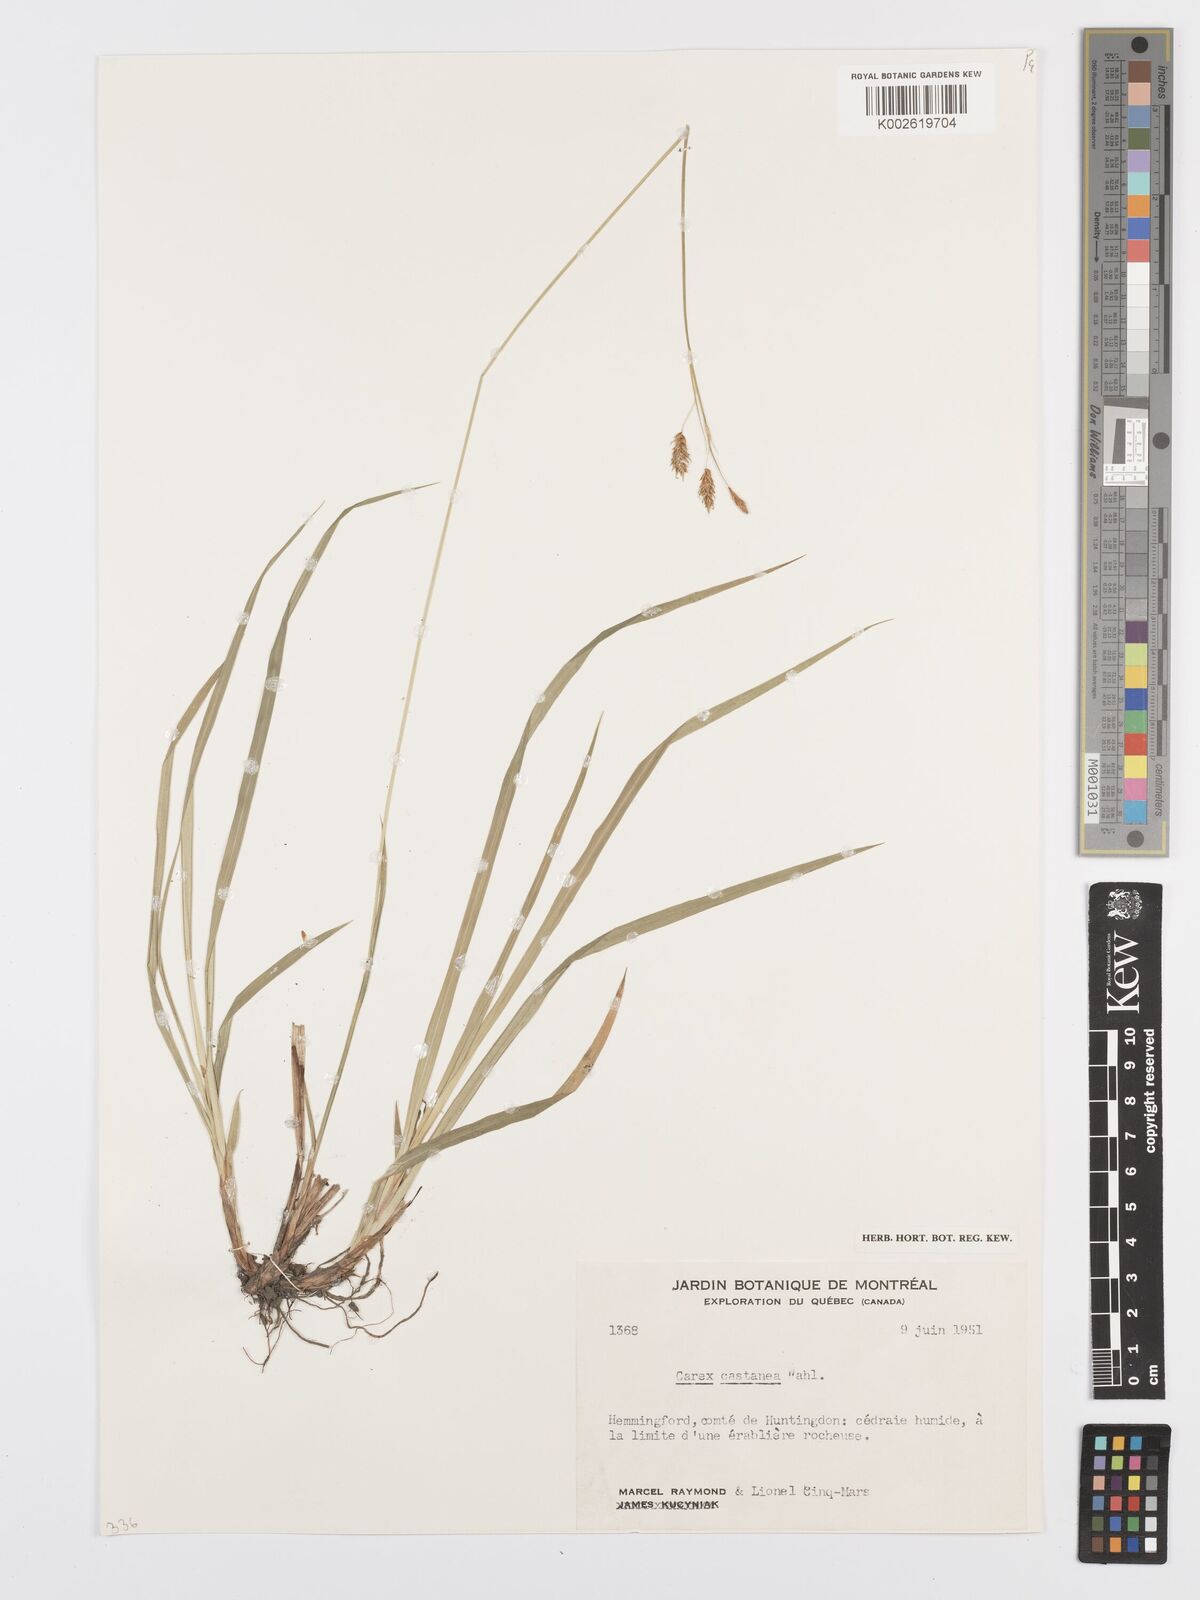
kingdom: Plantae
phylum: Tracheophyta
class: Liliopsida
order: Poales
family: Cyperaceae
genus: Carex
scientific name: Carex castanea
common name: Chestnut sedge
